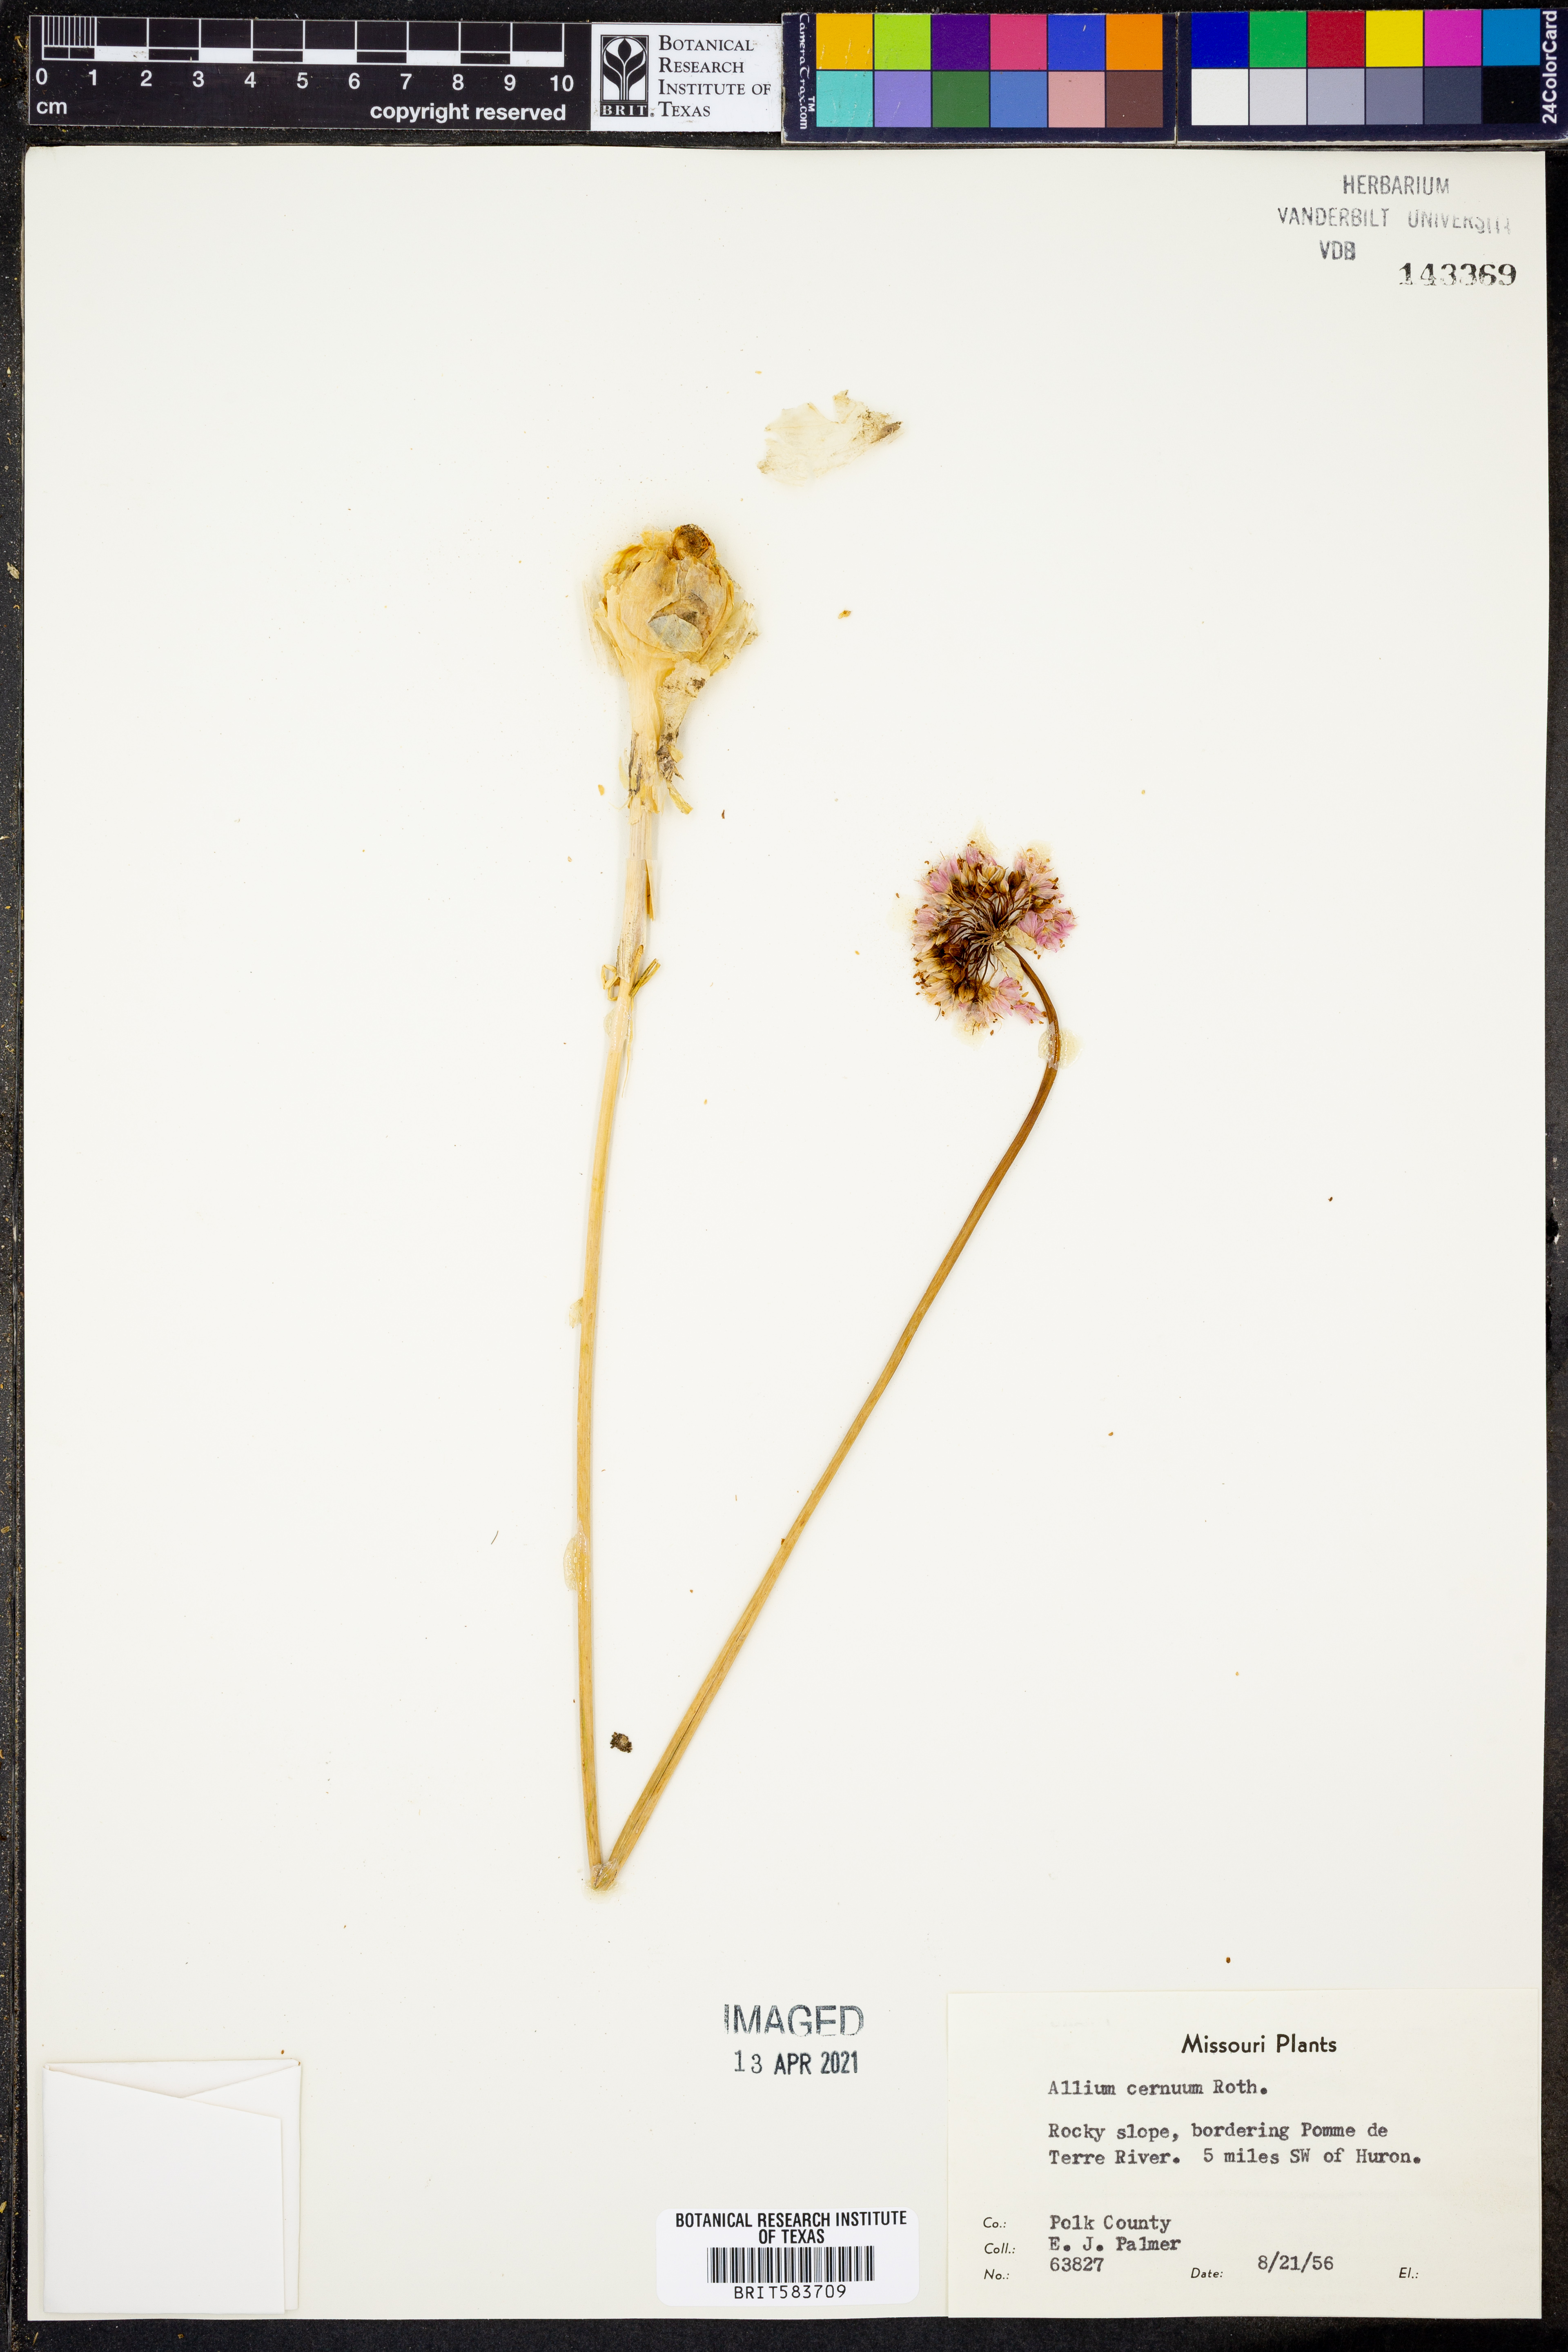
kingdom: Plantae
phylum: Tracheophyta
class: Liliopsida
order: Asparagales
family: Amaryllidaceae
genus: Allium
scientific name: Allium cernuum
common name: Nodding onion
